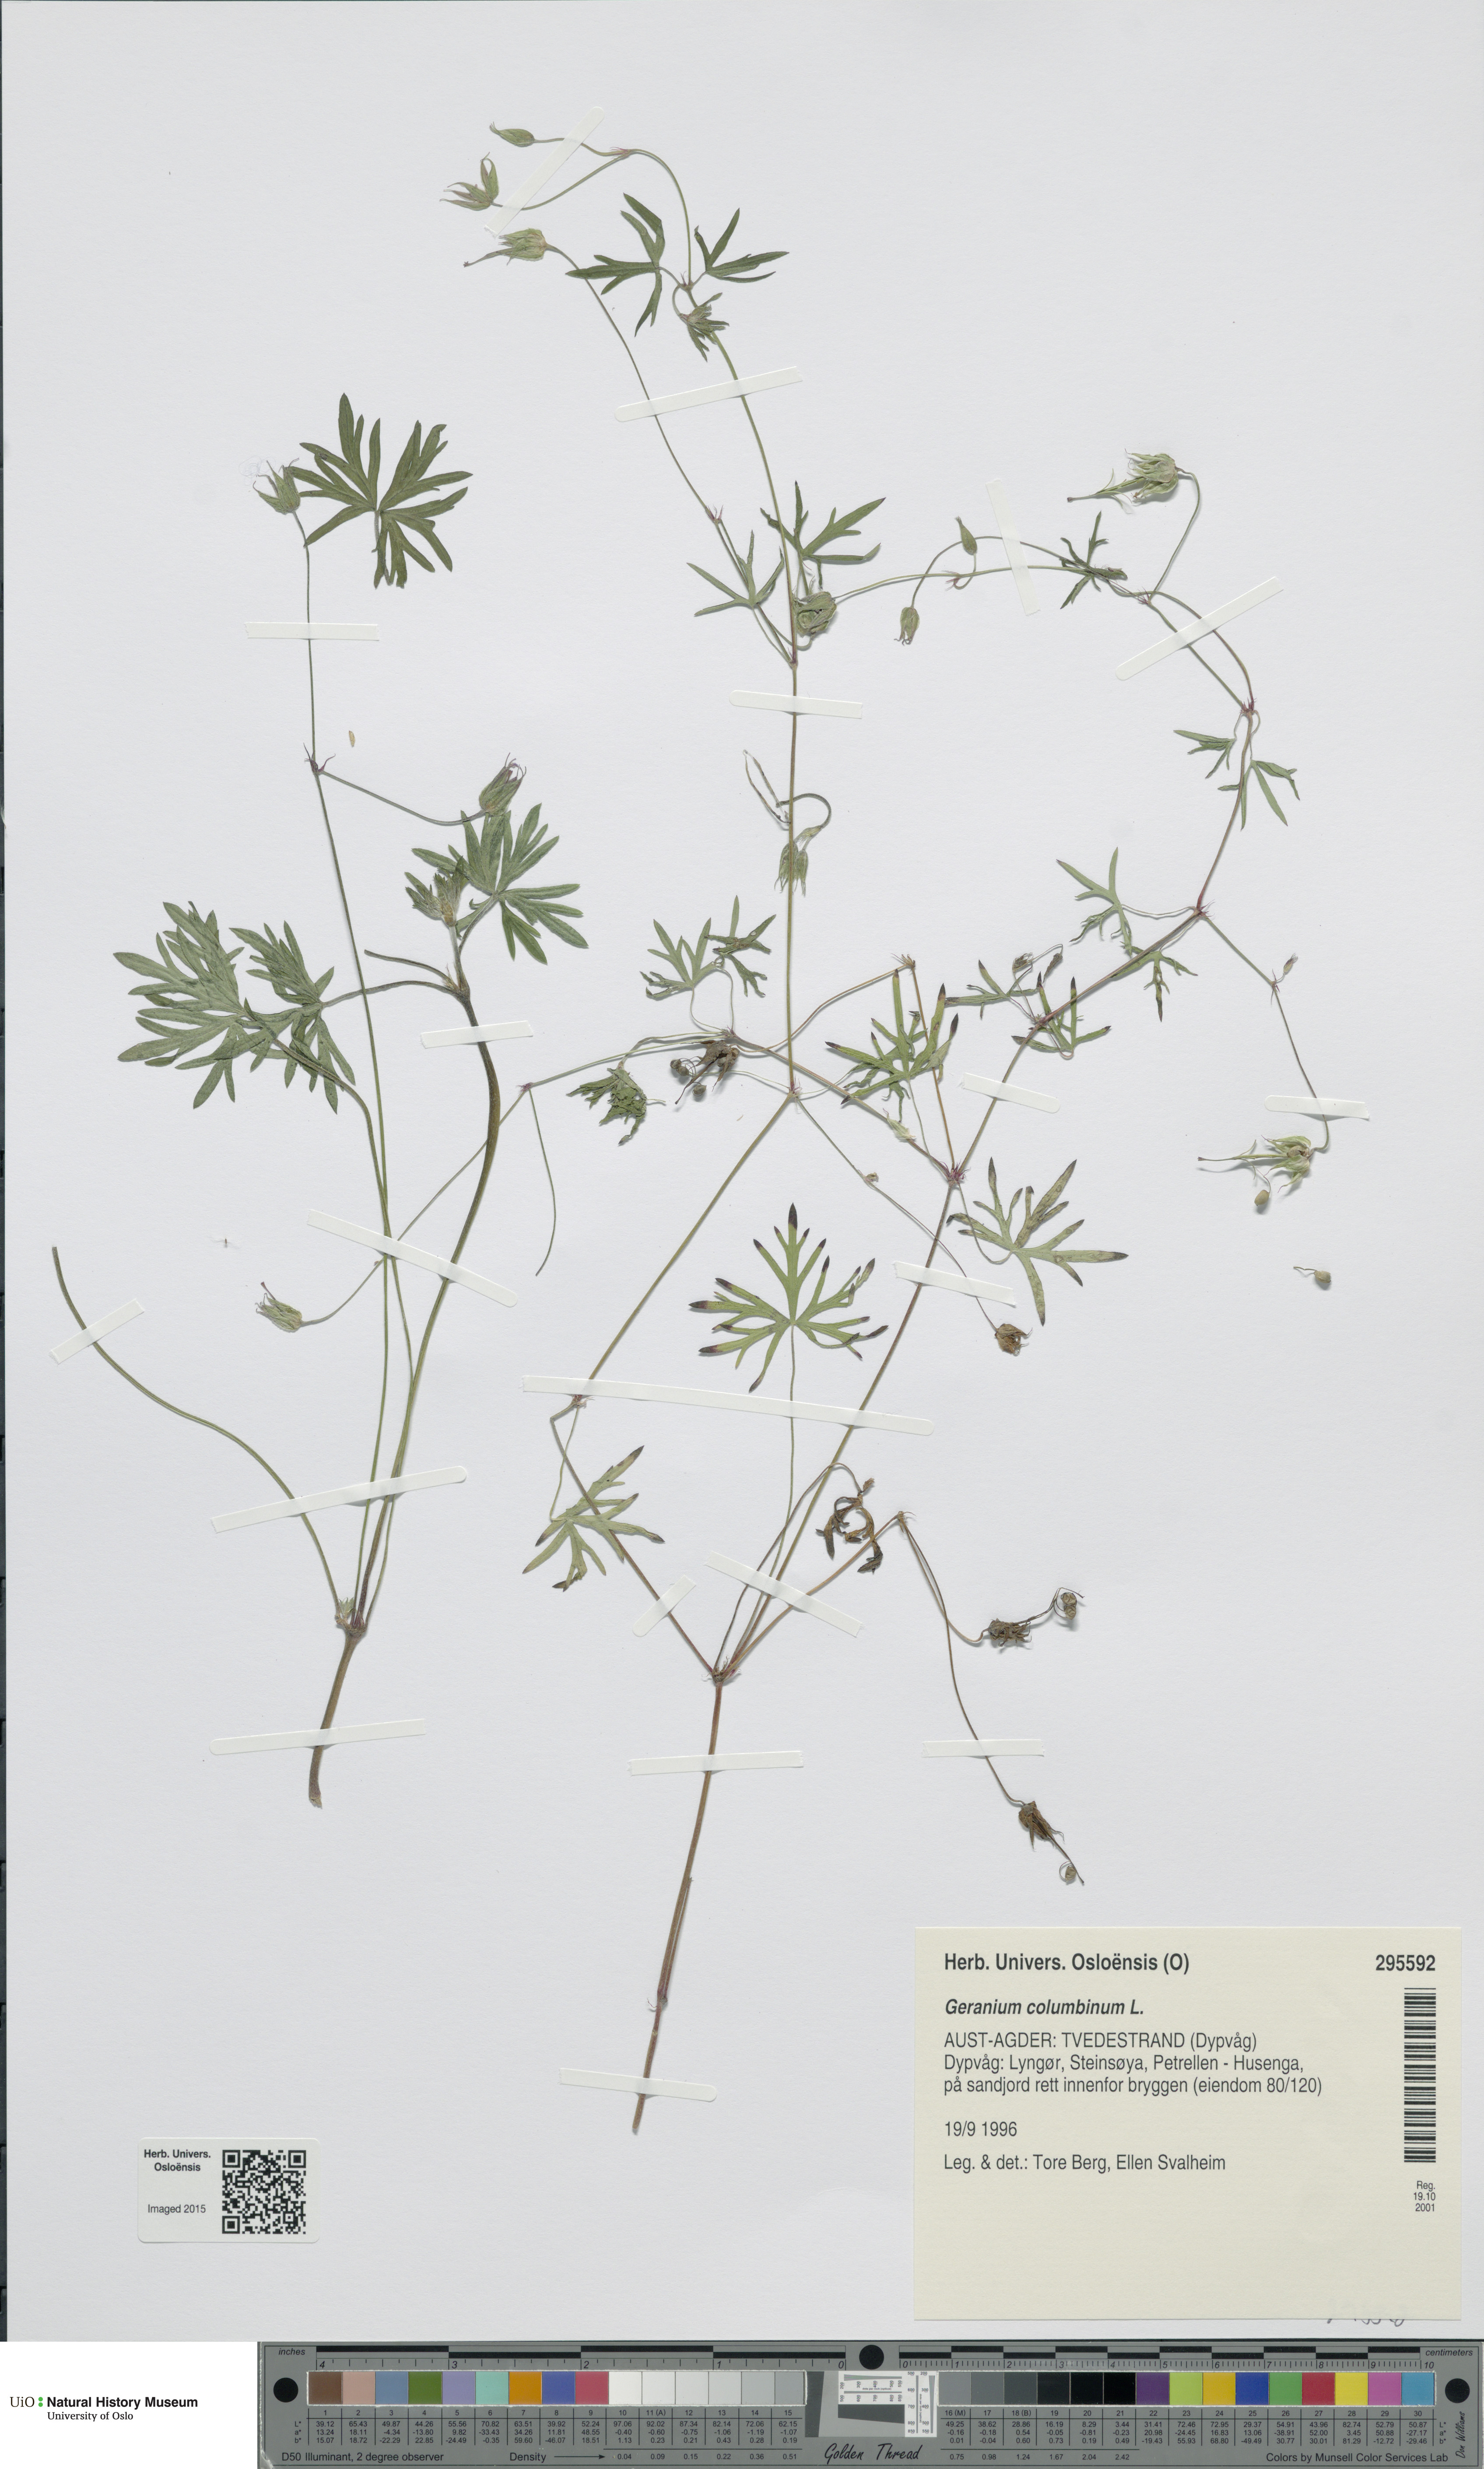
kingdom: Plantae
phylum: Tracheophyta
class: Magnoliopsida
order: Geraniales
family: Geraniaceae
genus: Geranium
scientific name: Geranium columbinum
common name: Long-stalked crane's-bill
